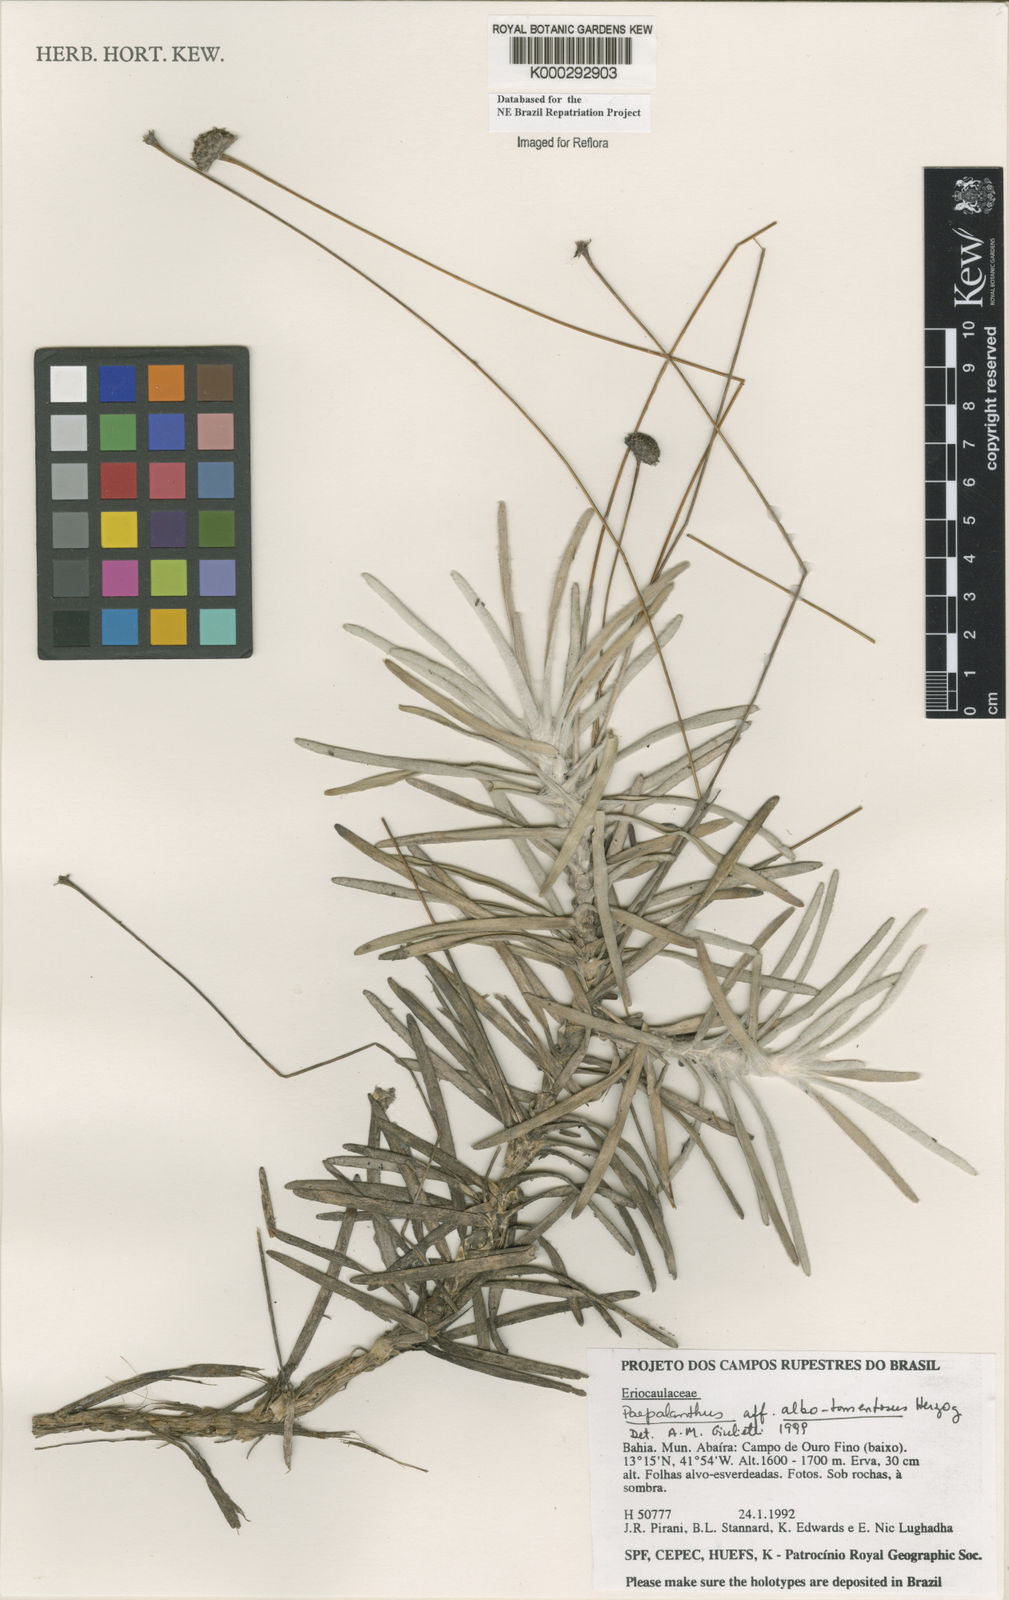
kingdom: Plantae
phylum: Tracheophyta
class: Liliopsida
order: Poales
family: Eriocaulaceae
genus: Paepalanthus
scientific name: Paepalanthus albotomentosus
